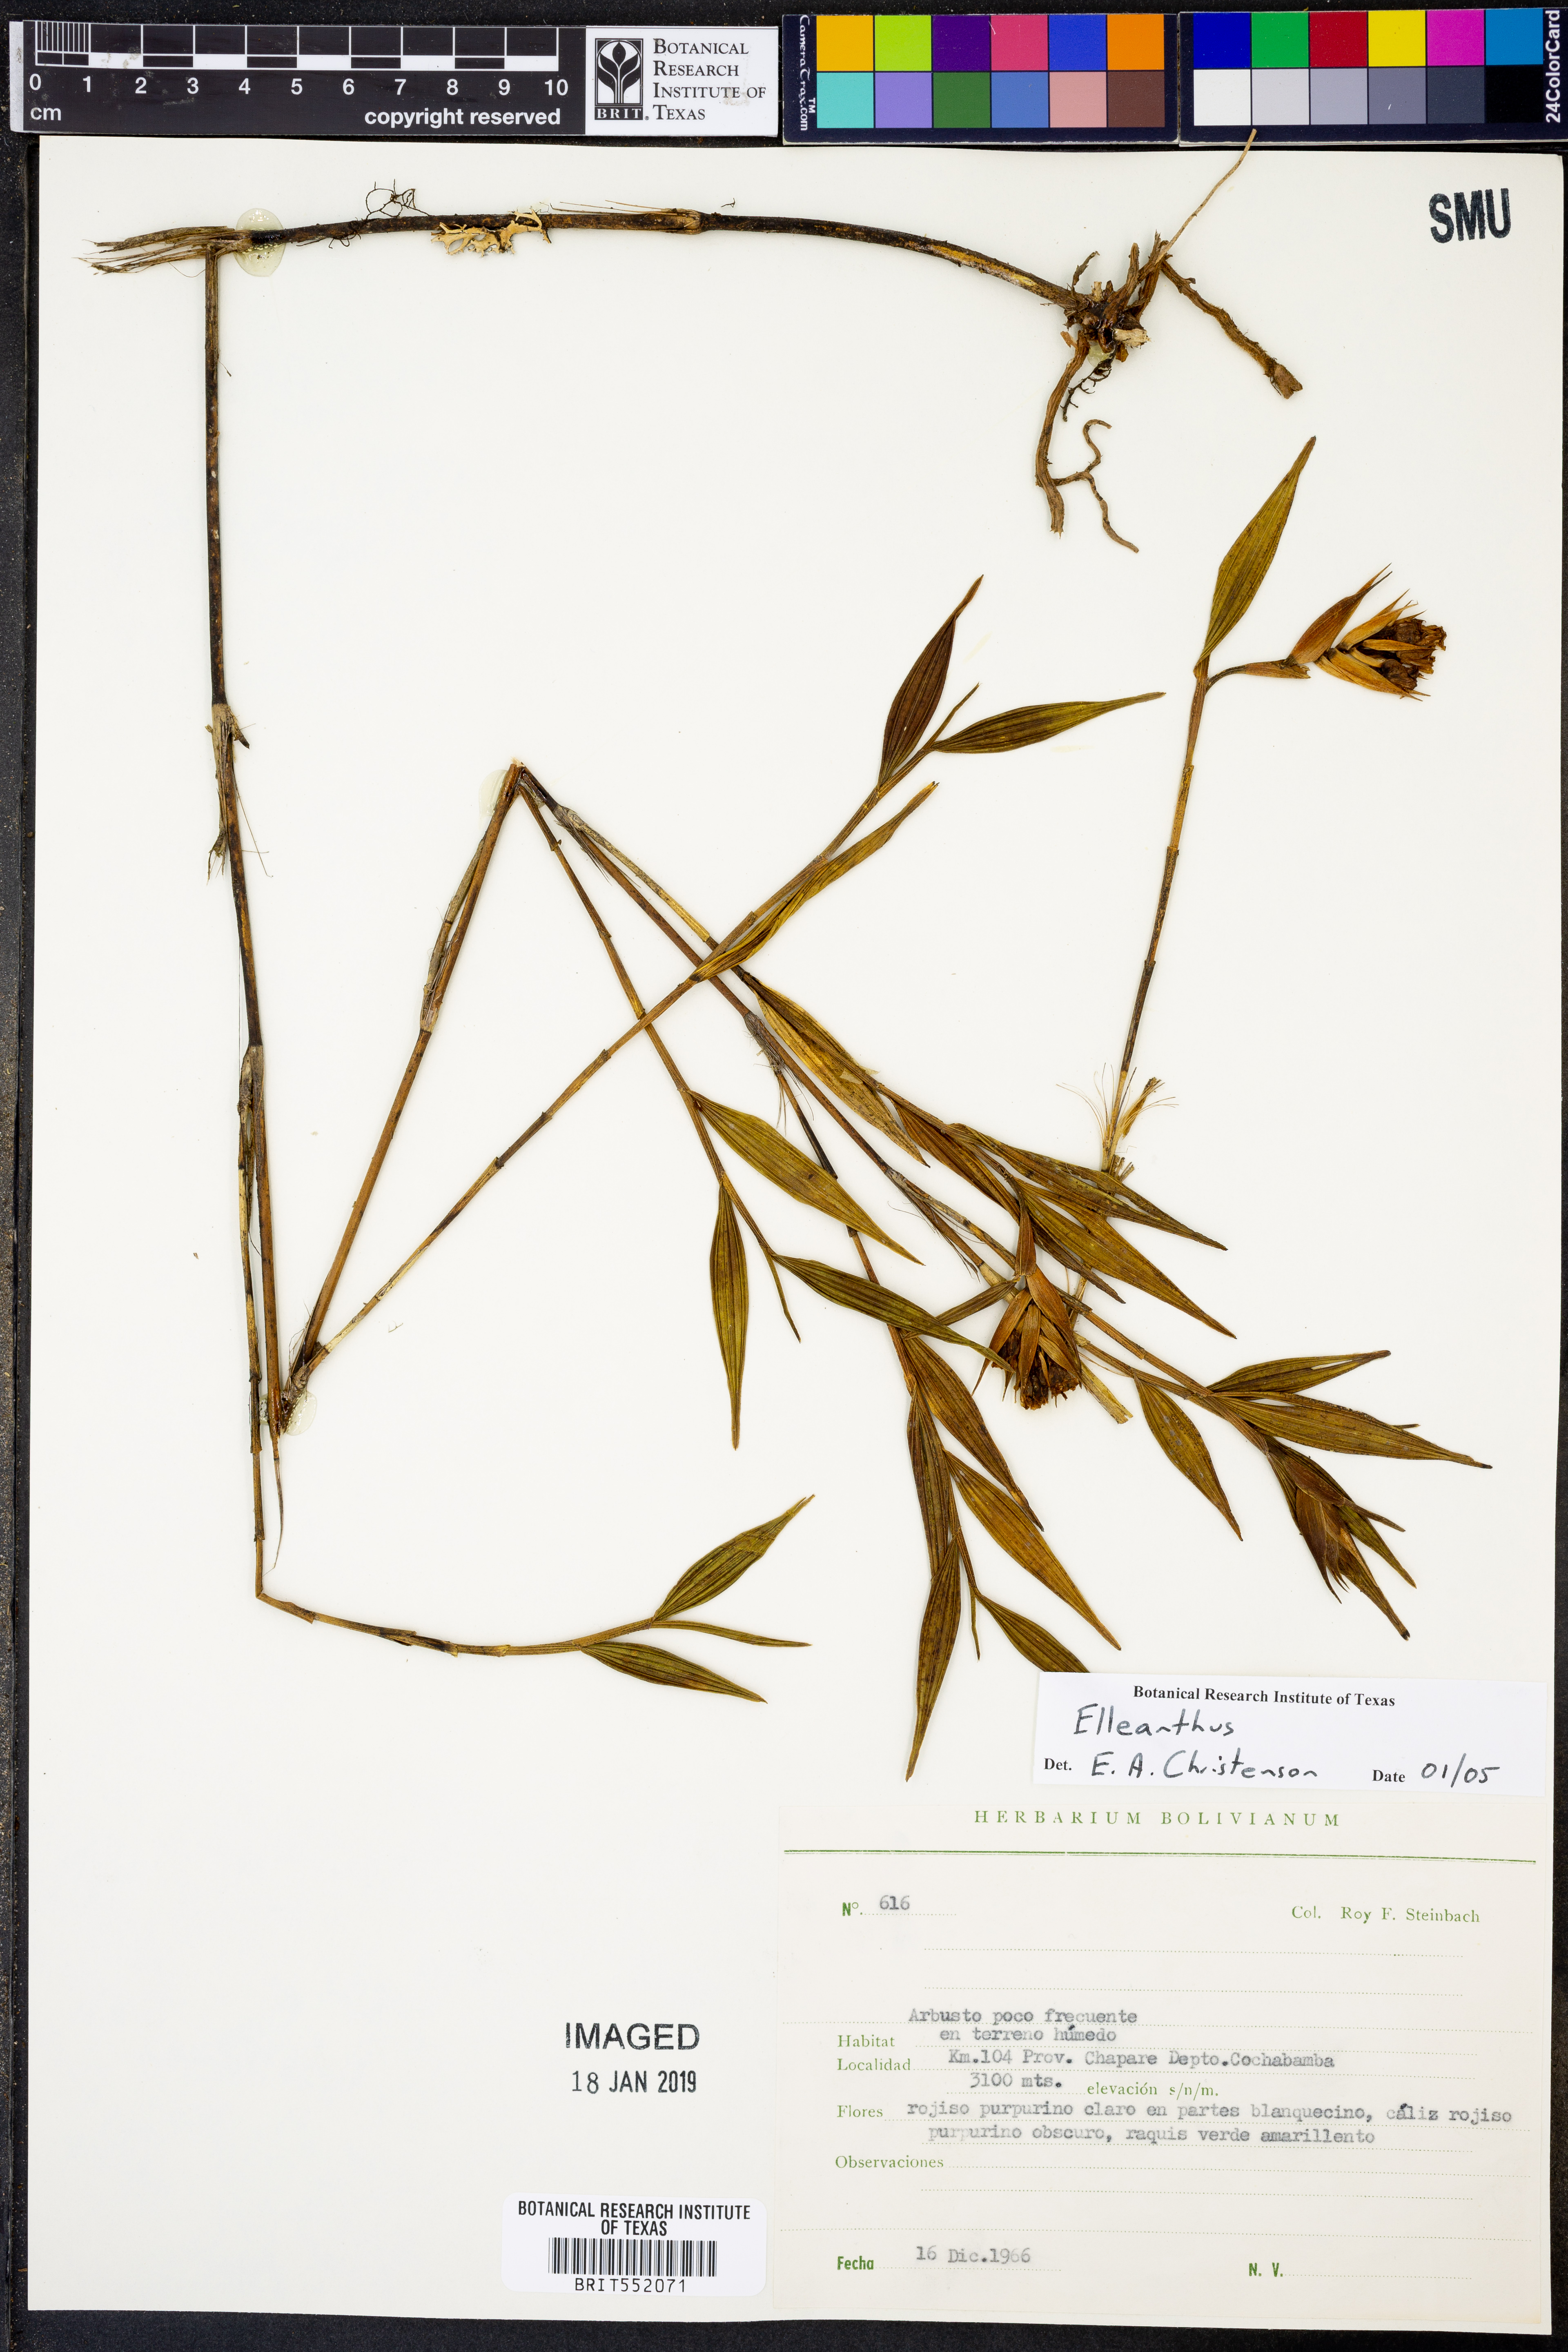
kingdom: Plantae
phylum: Tracheophyta
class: Liliopsida
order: Asparagales
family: Orchidaceae
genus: Elleanthus
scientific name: Elleanthus
